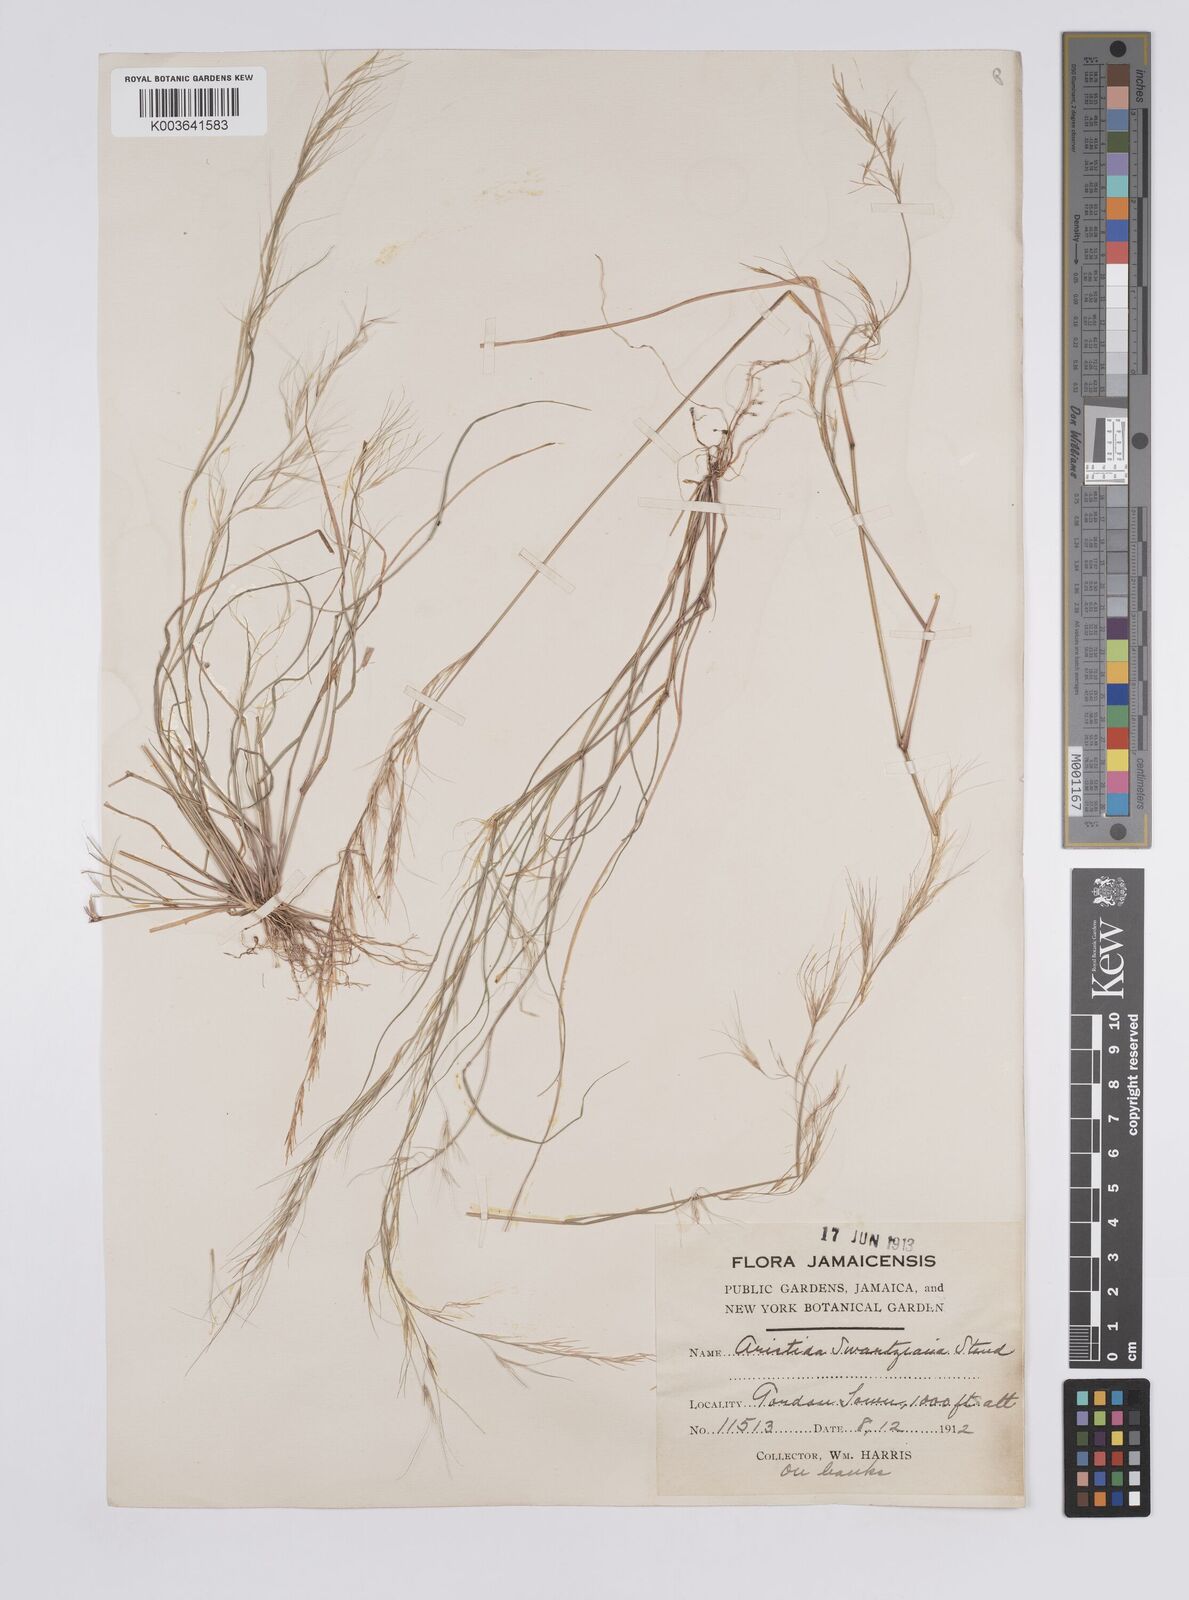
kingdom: Plantae
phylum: Tracheophyta
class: Liliopsida
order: Poales
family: Poaceae
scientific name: Poaceae
